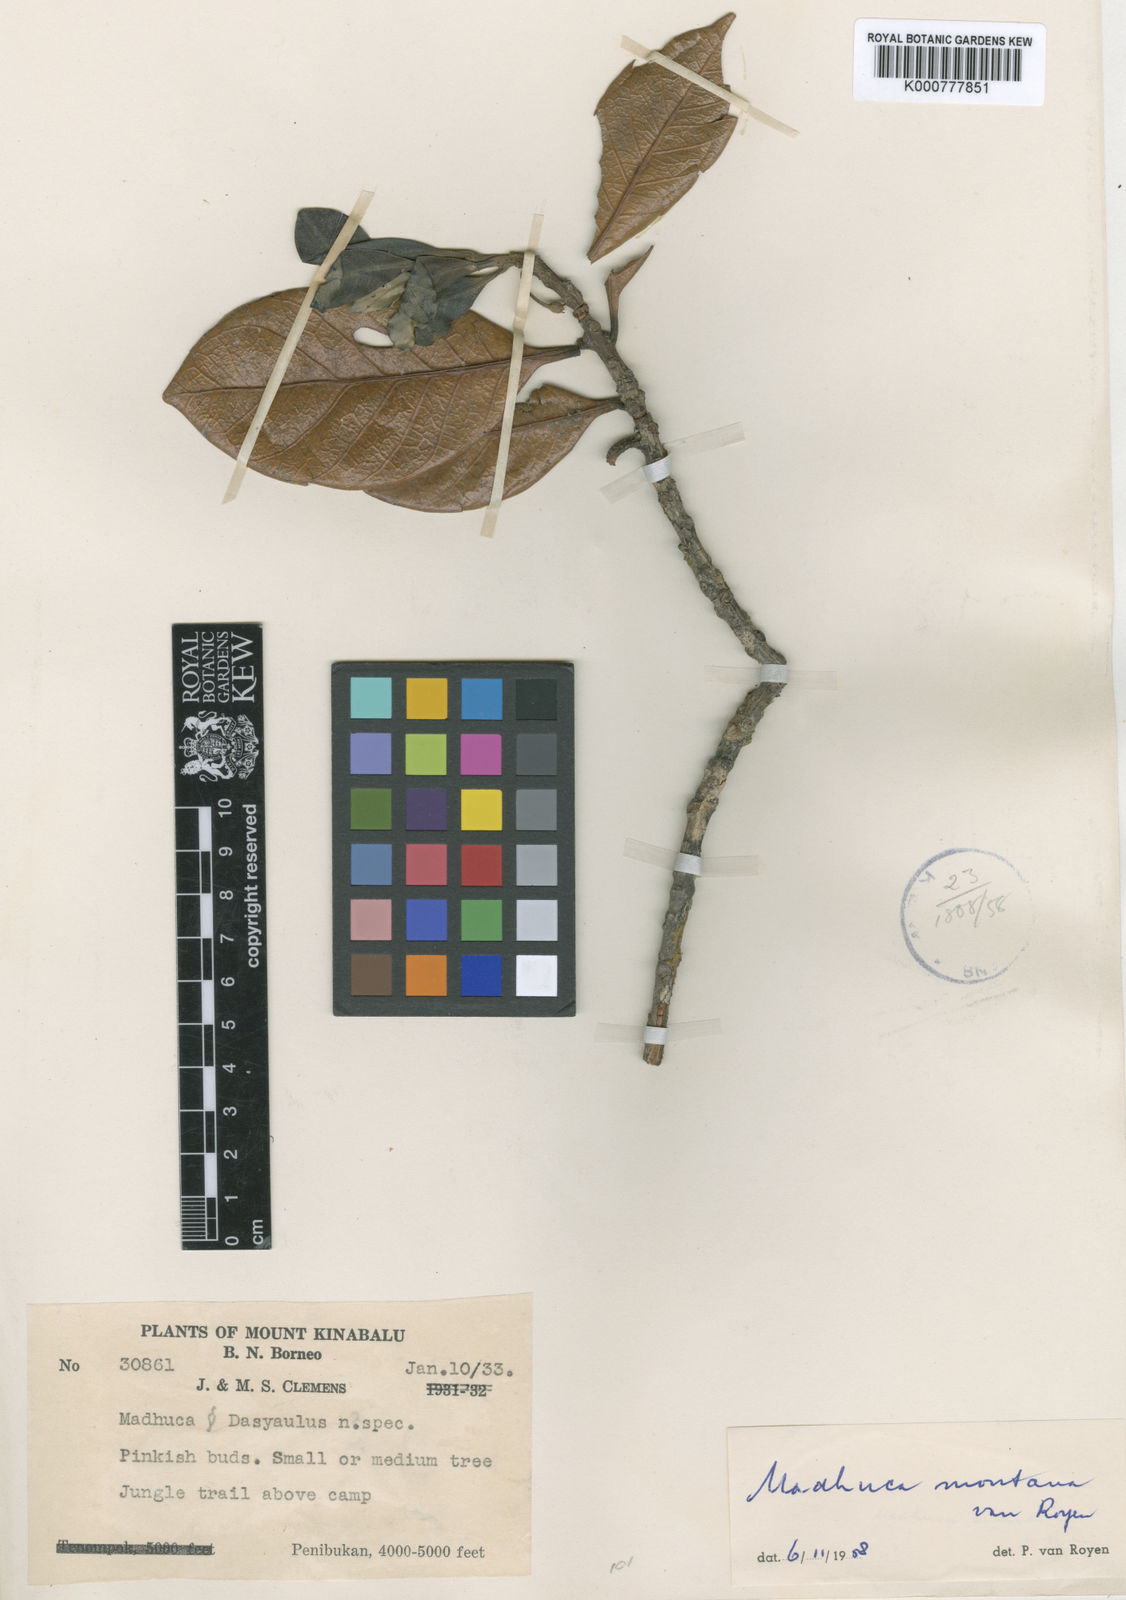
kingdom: Plantae
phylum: Tracheophyta
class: Magnoliopsida
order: Ericales
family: Sapotaceae
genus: Madhuca
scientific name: Madhuca montana
